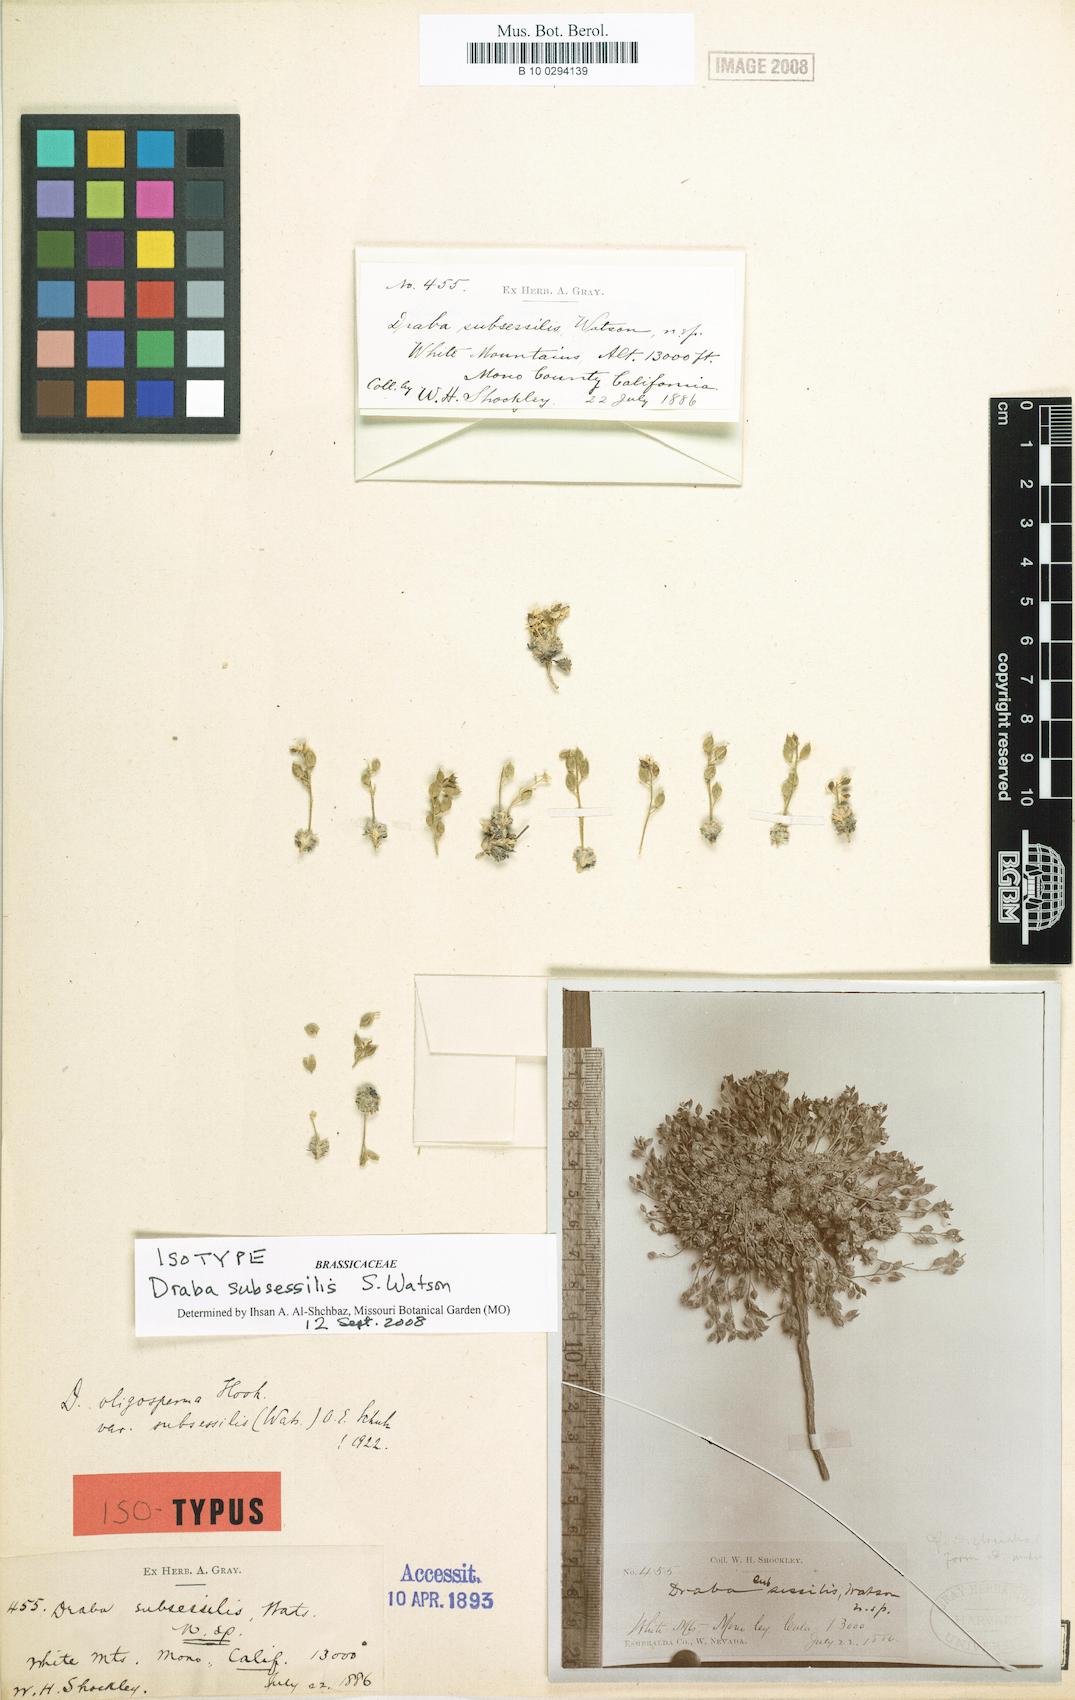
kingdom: Plantae
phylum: Tracheophyta
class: Magnoliopsida
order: Brassicales
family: Brassicaceae
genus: Draba
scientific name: Draba oligosperma
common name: Few-seed draba
